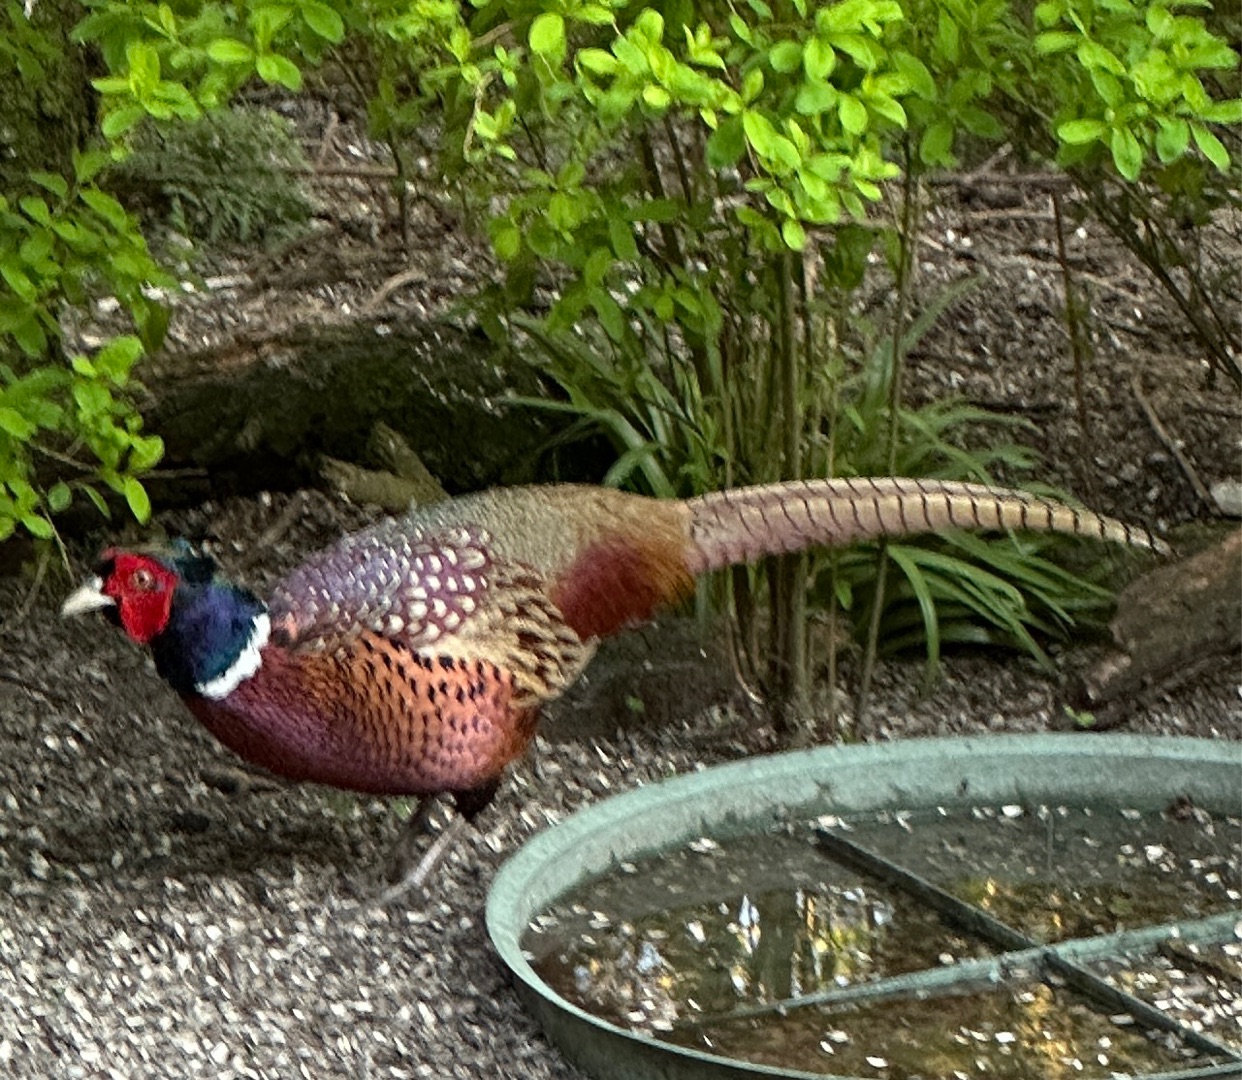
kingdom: Animalia
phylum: Chordata
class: Aves
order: Galliformes
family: Phasianidae
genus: Phasianus
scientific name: Phasianus colchicus
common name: Fasan
